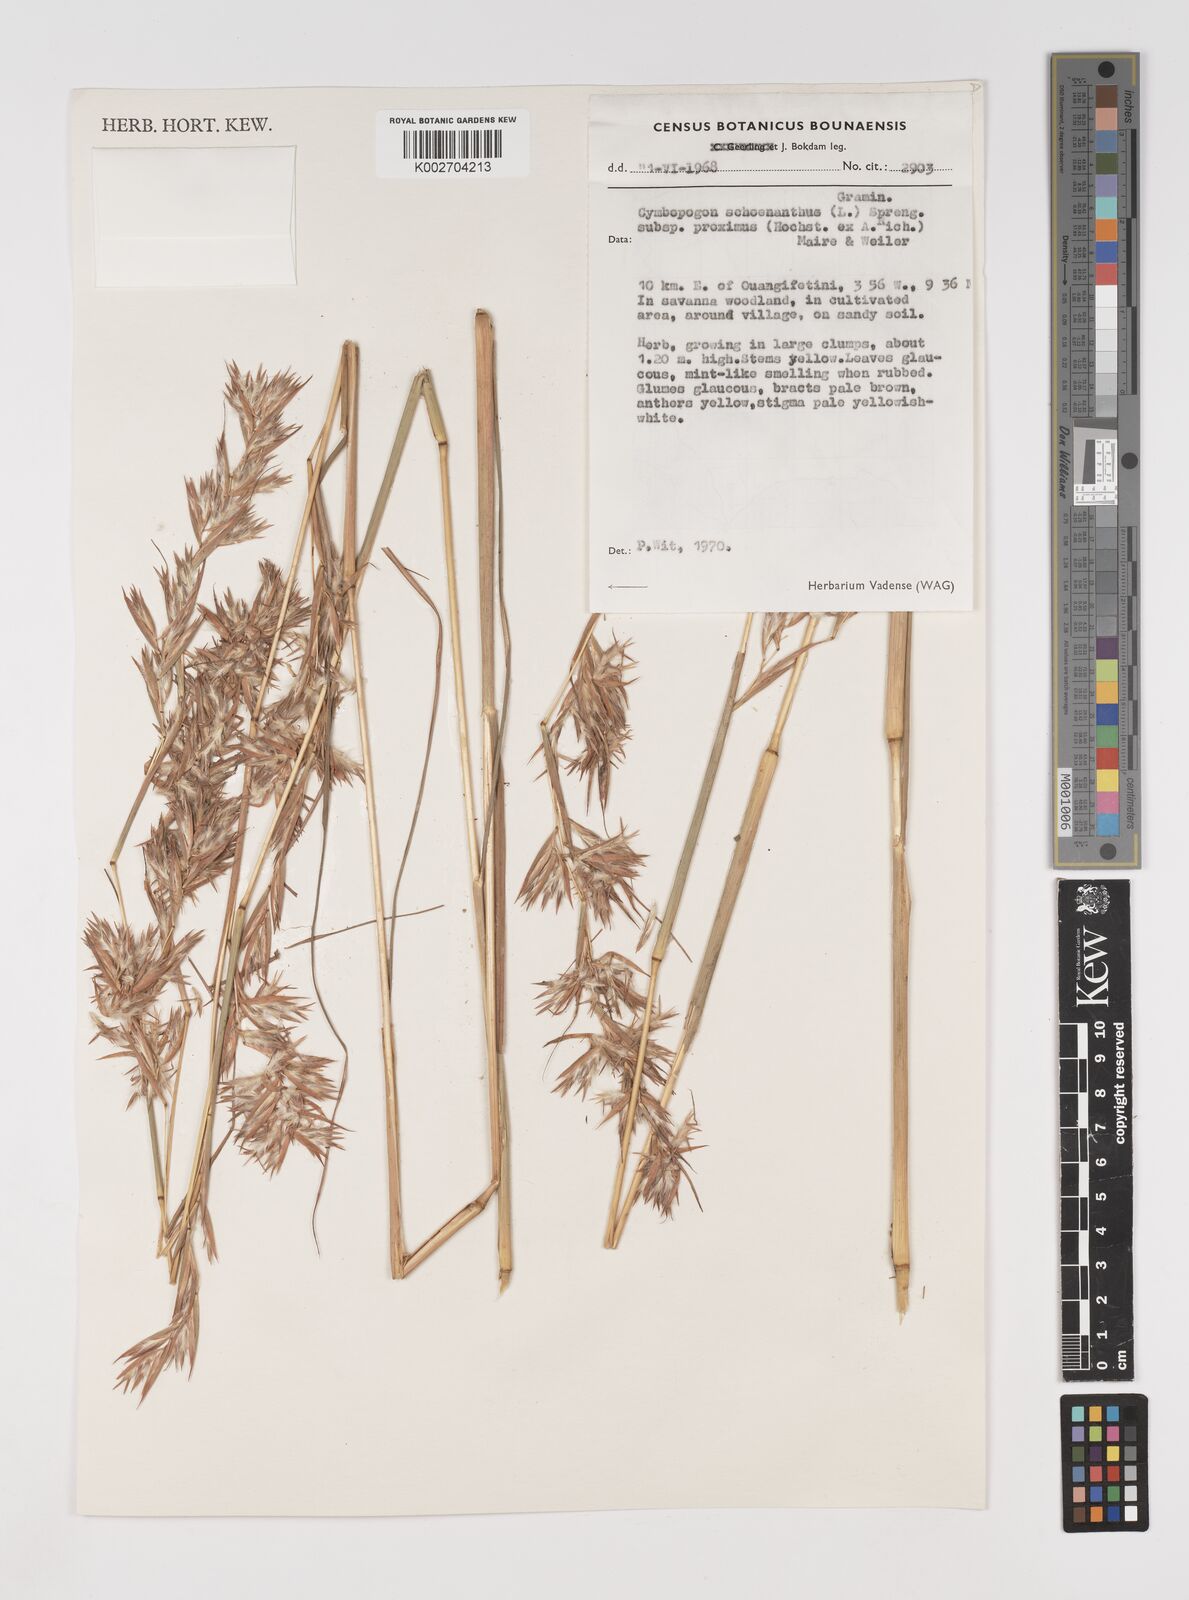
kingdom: Plantae
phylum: Tracheophyta
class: Liliopsida
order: Poales
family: Poaceae
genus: Cymbopogon
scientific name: Cymbopogon schoenanthus
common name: Geranium grass
